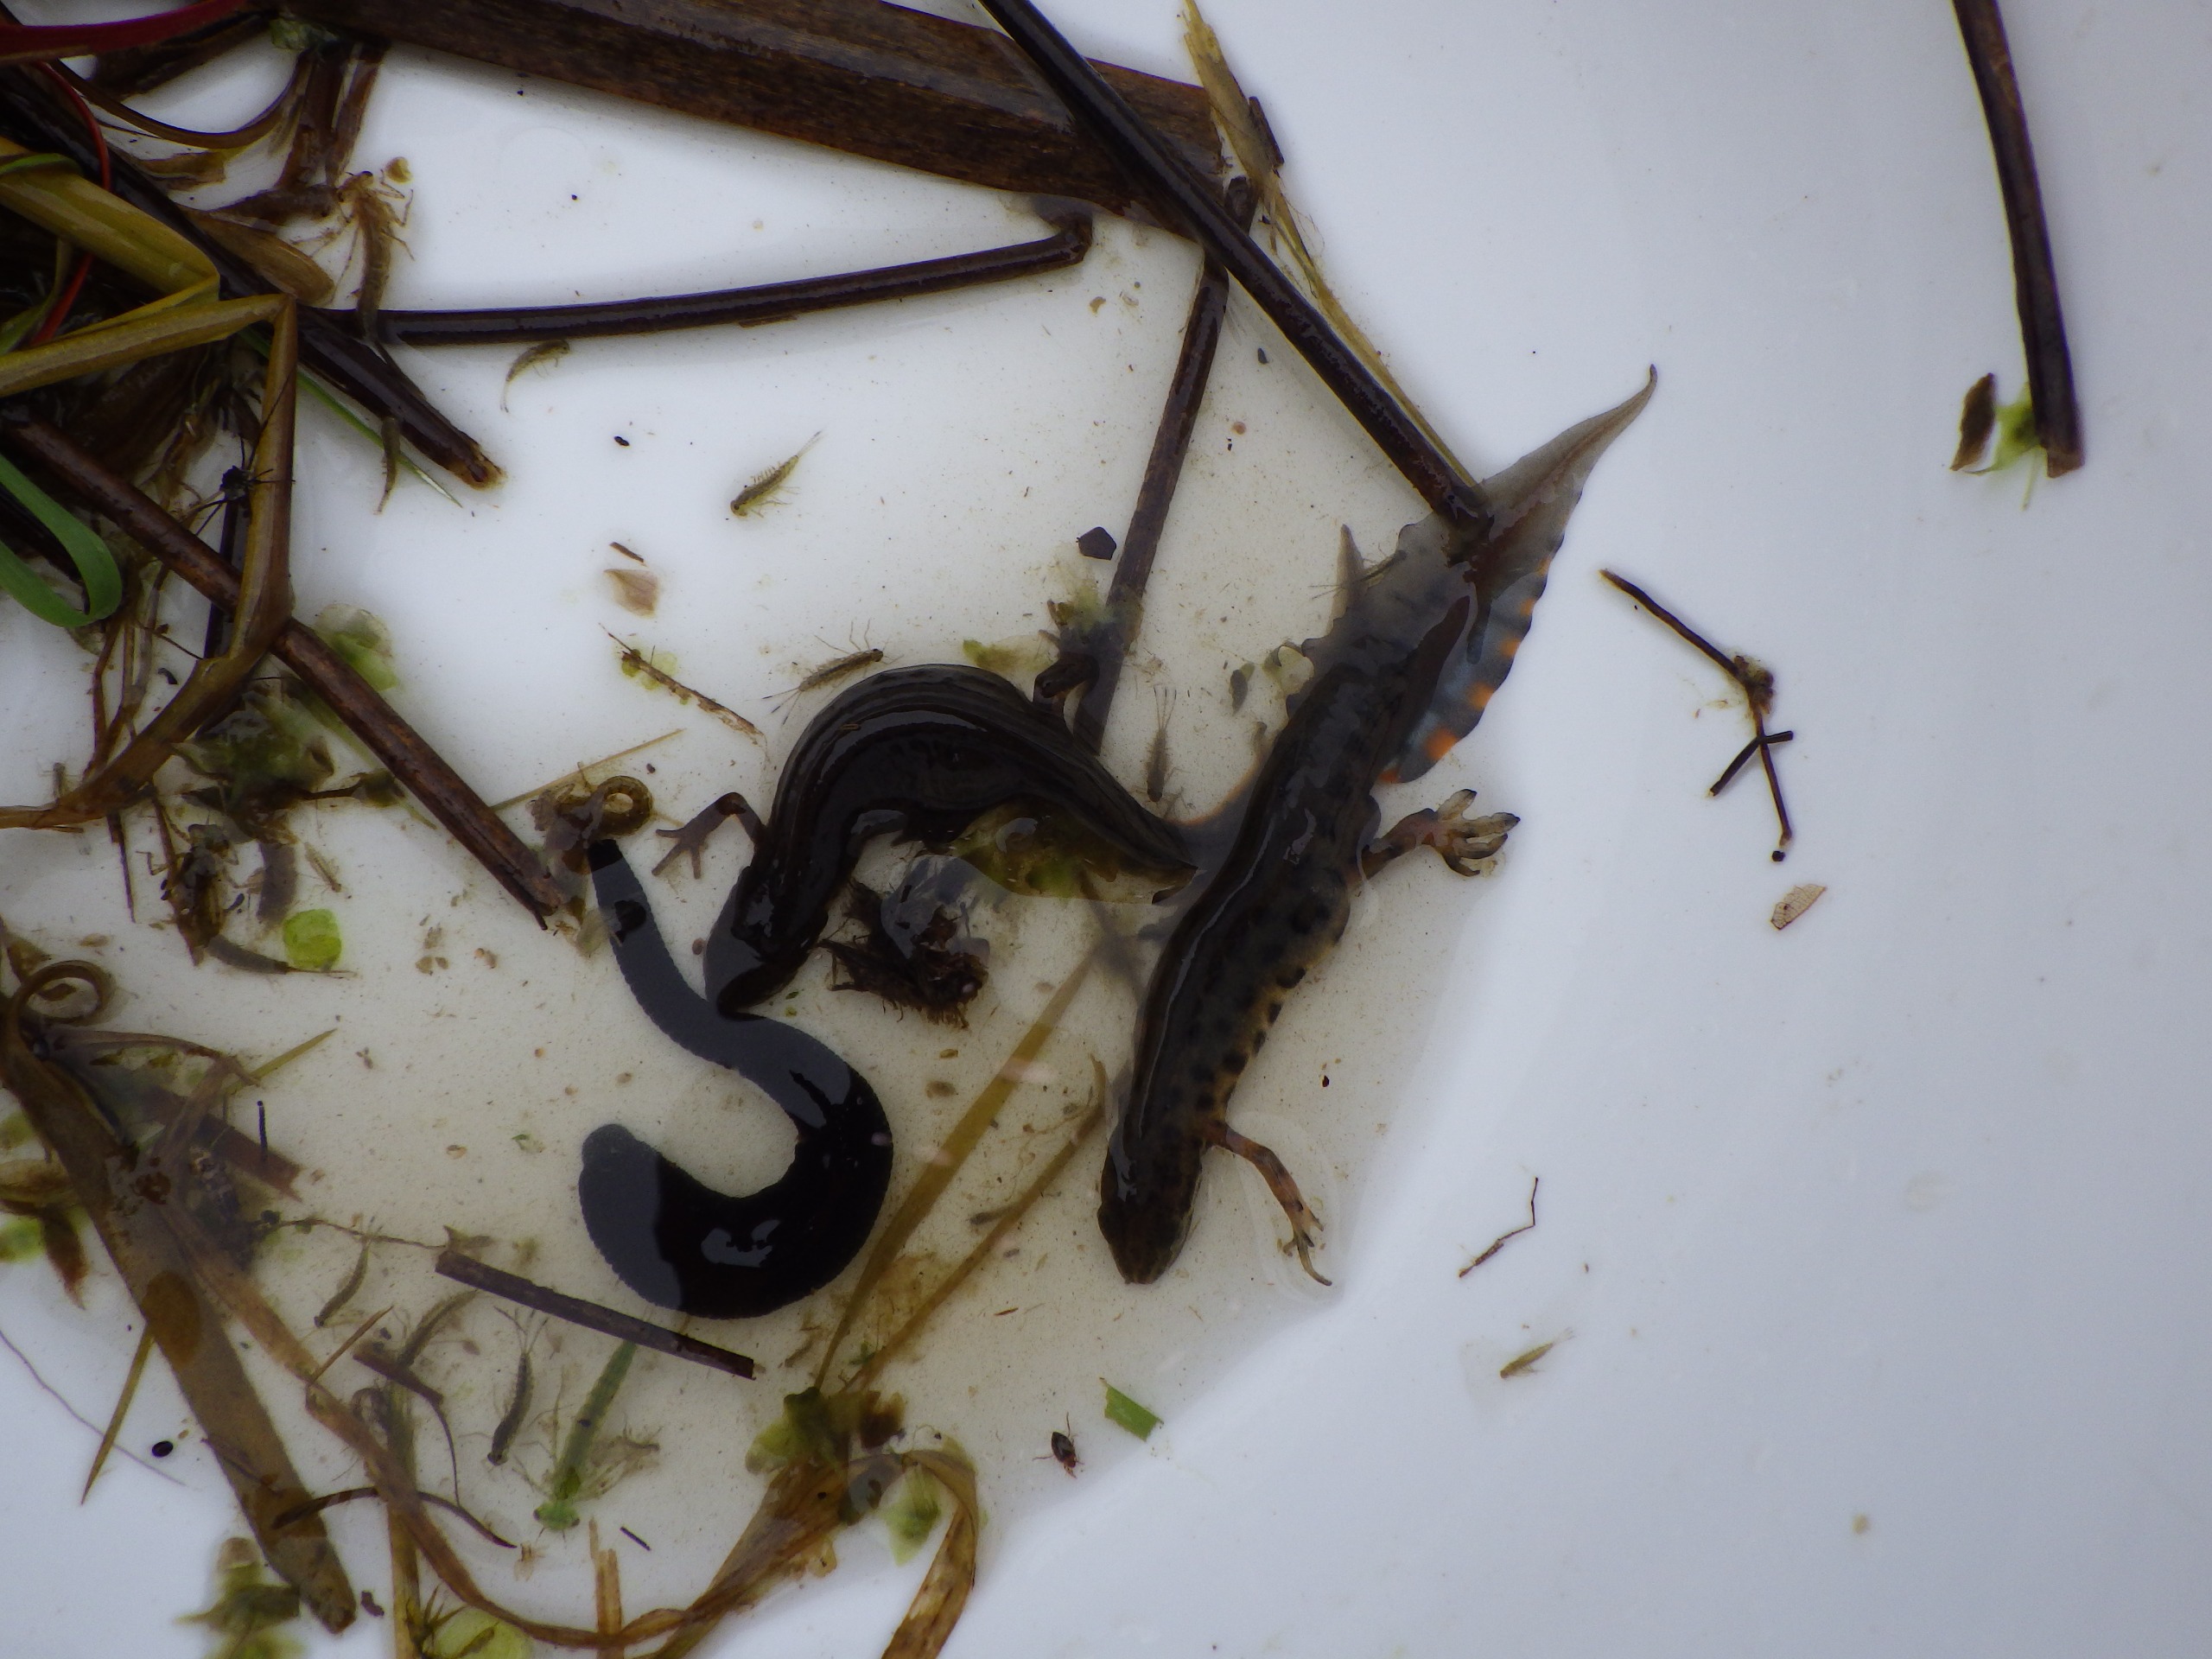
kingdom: Animalia
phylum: Chordata
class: Amphibia
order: Caudata
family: Salamandridae
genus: Lissotriton
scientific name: Lissotriton vulgaris
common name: Lille vandsalamander
